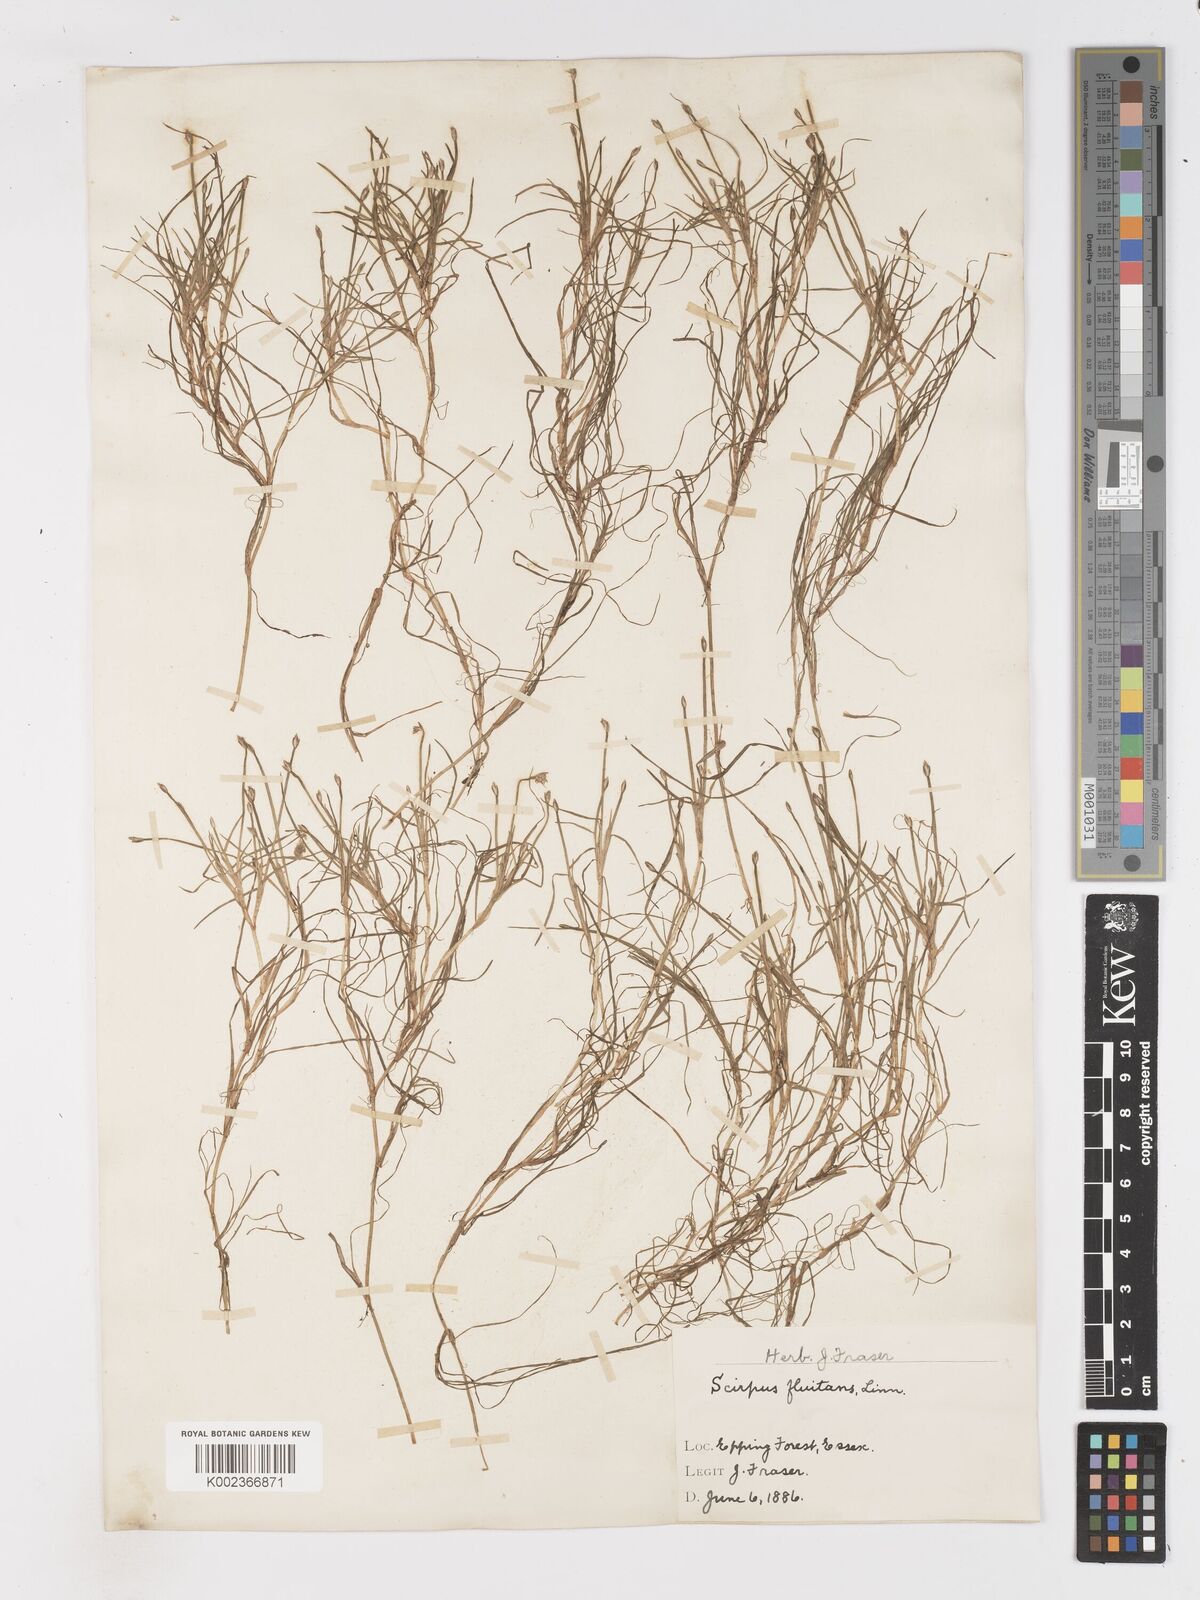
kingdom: Plantae
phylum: Tracheophyta
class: Liliopsida
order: Poales
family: Cyperaceae
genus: Isolepis
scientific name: Isolepis fluitans
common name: Floating club-rush
